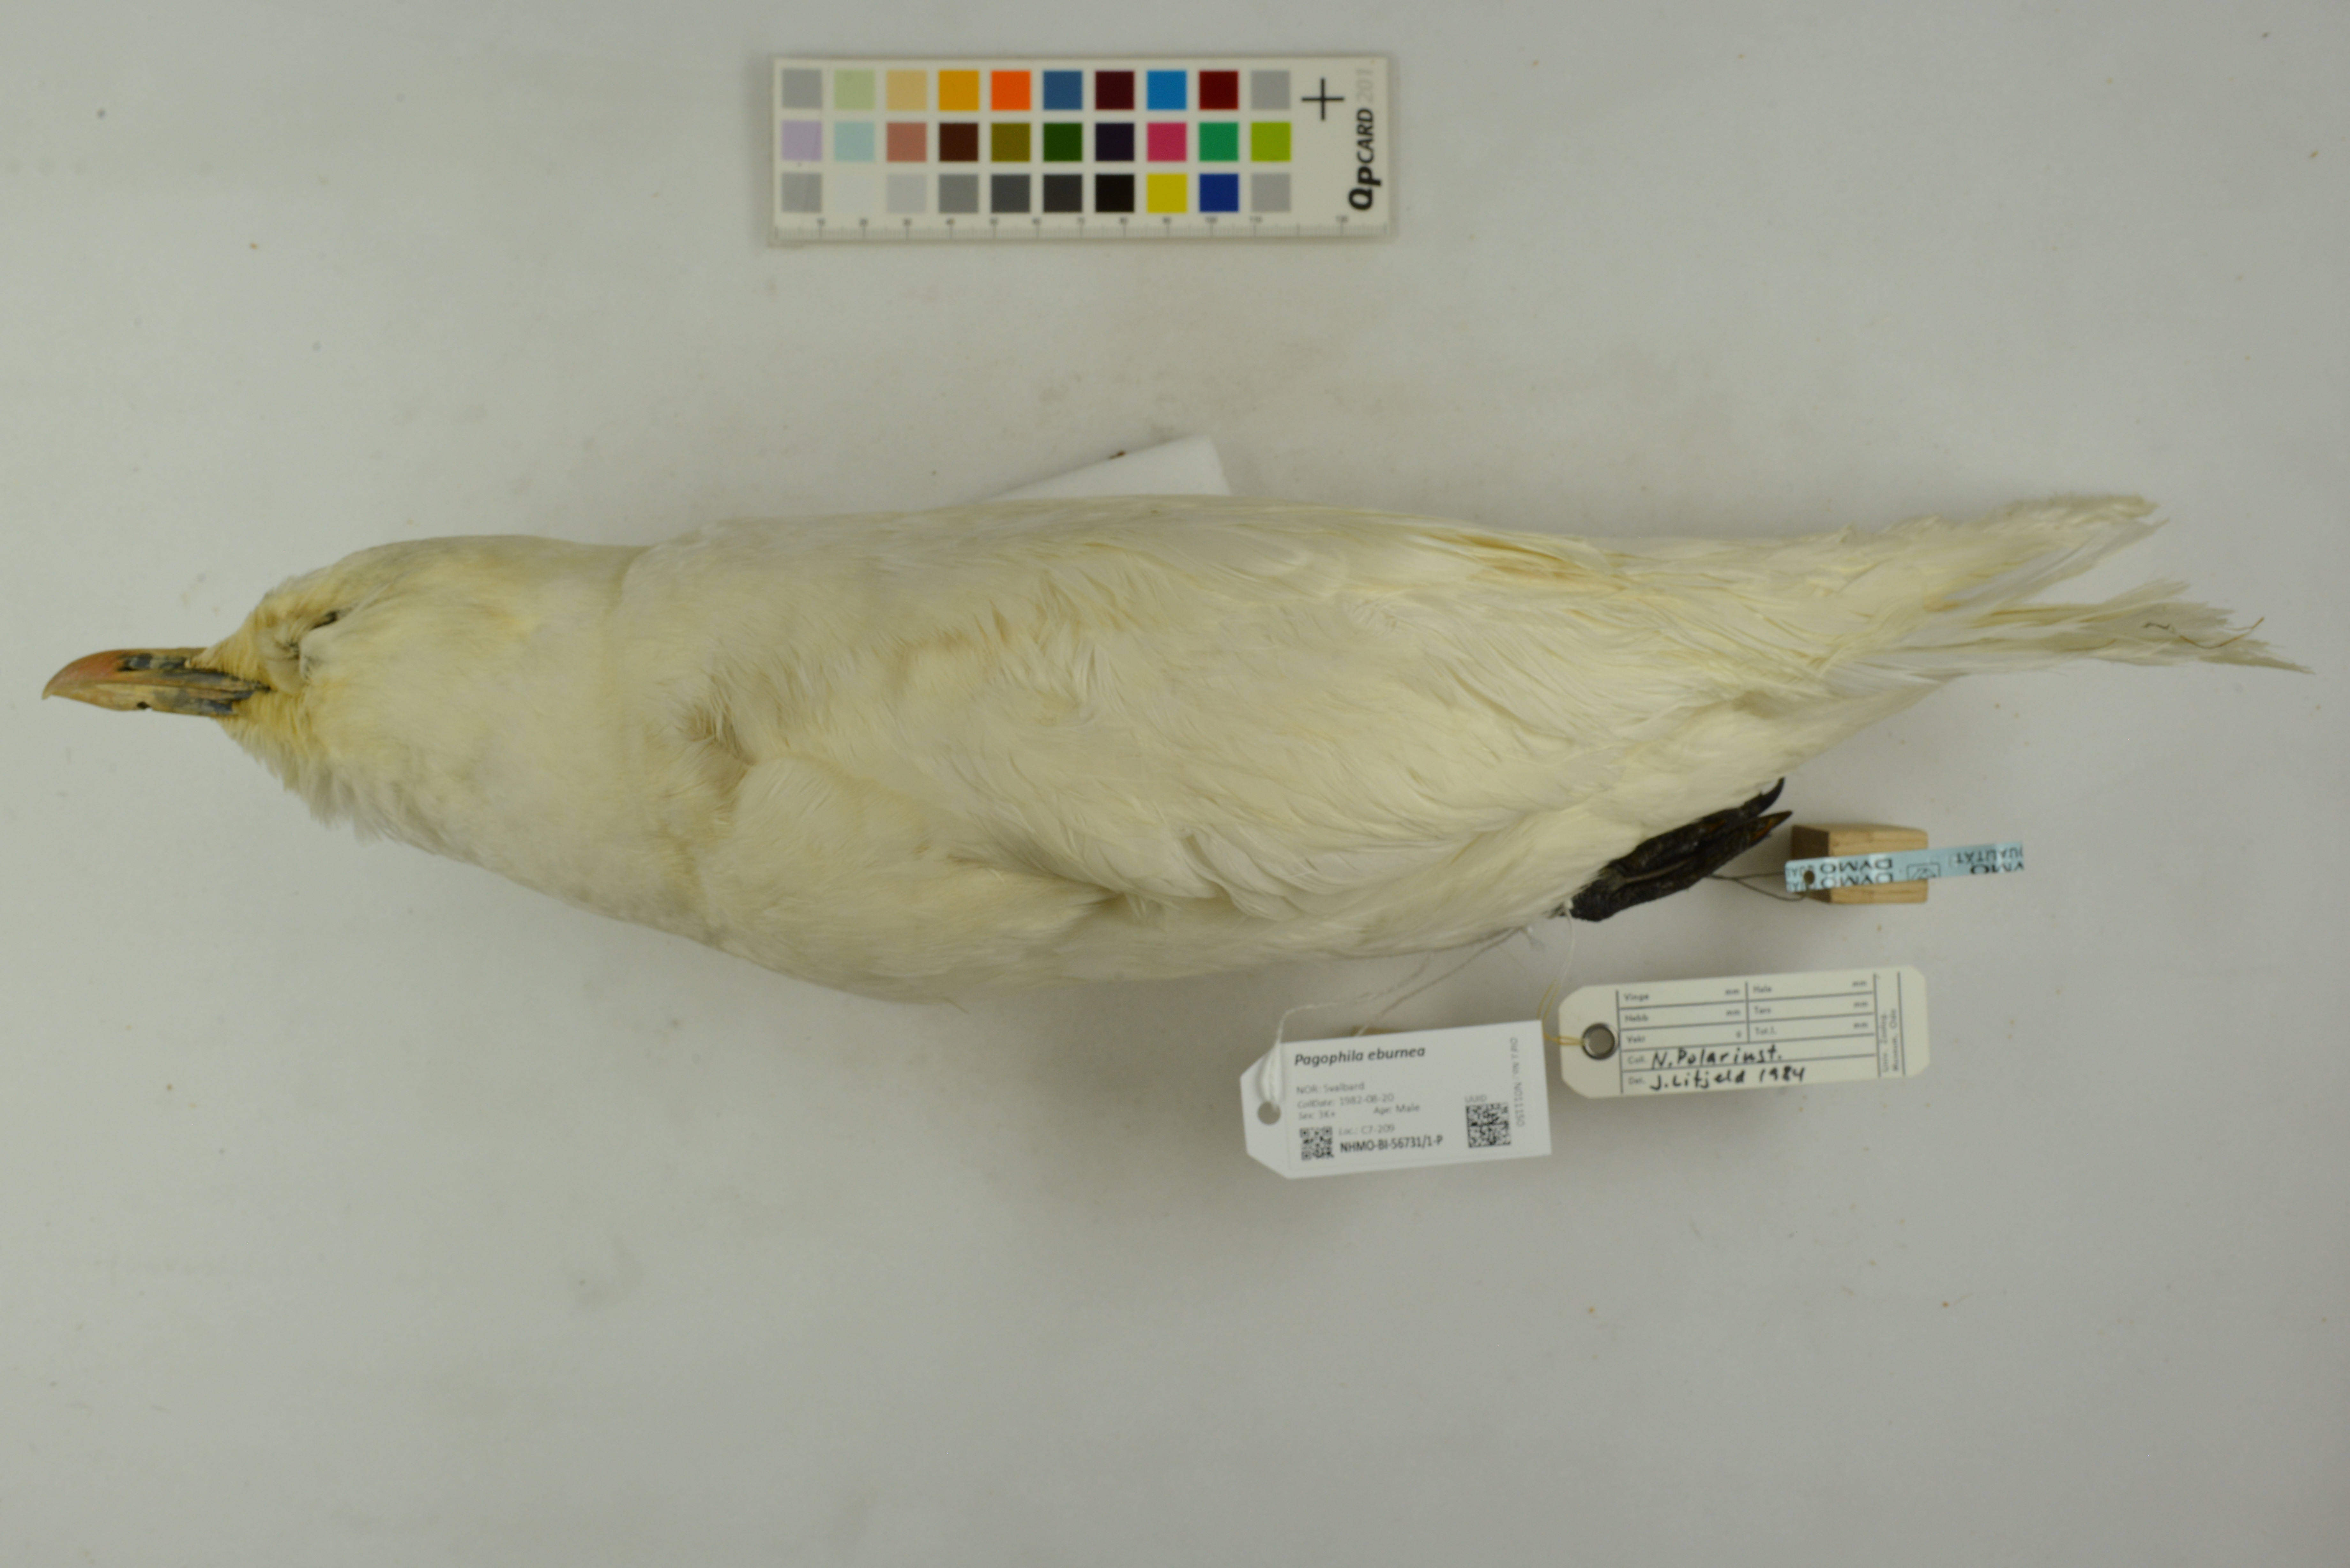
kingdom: Animalia
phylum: Chordata
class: Aves
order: Charadriiformes
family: Laridae
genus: Pagophila
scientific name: Pagophila eburnea
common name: Ivory gull
